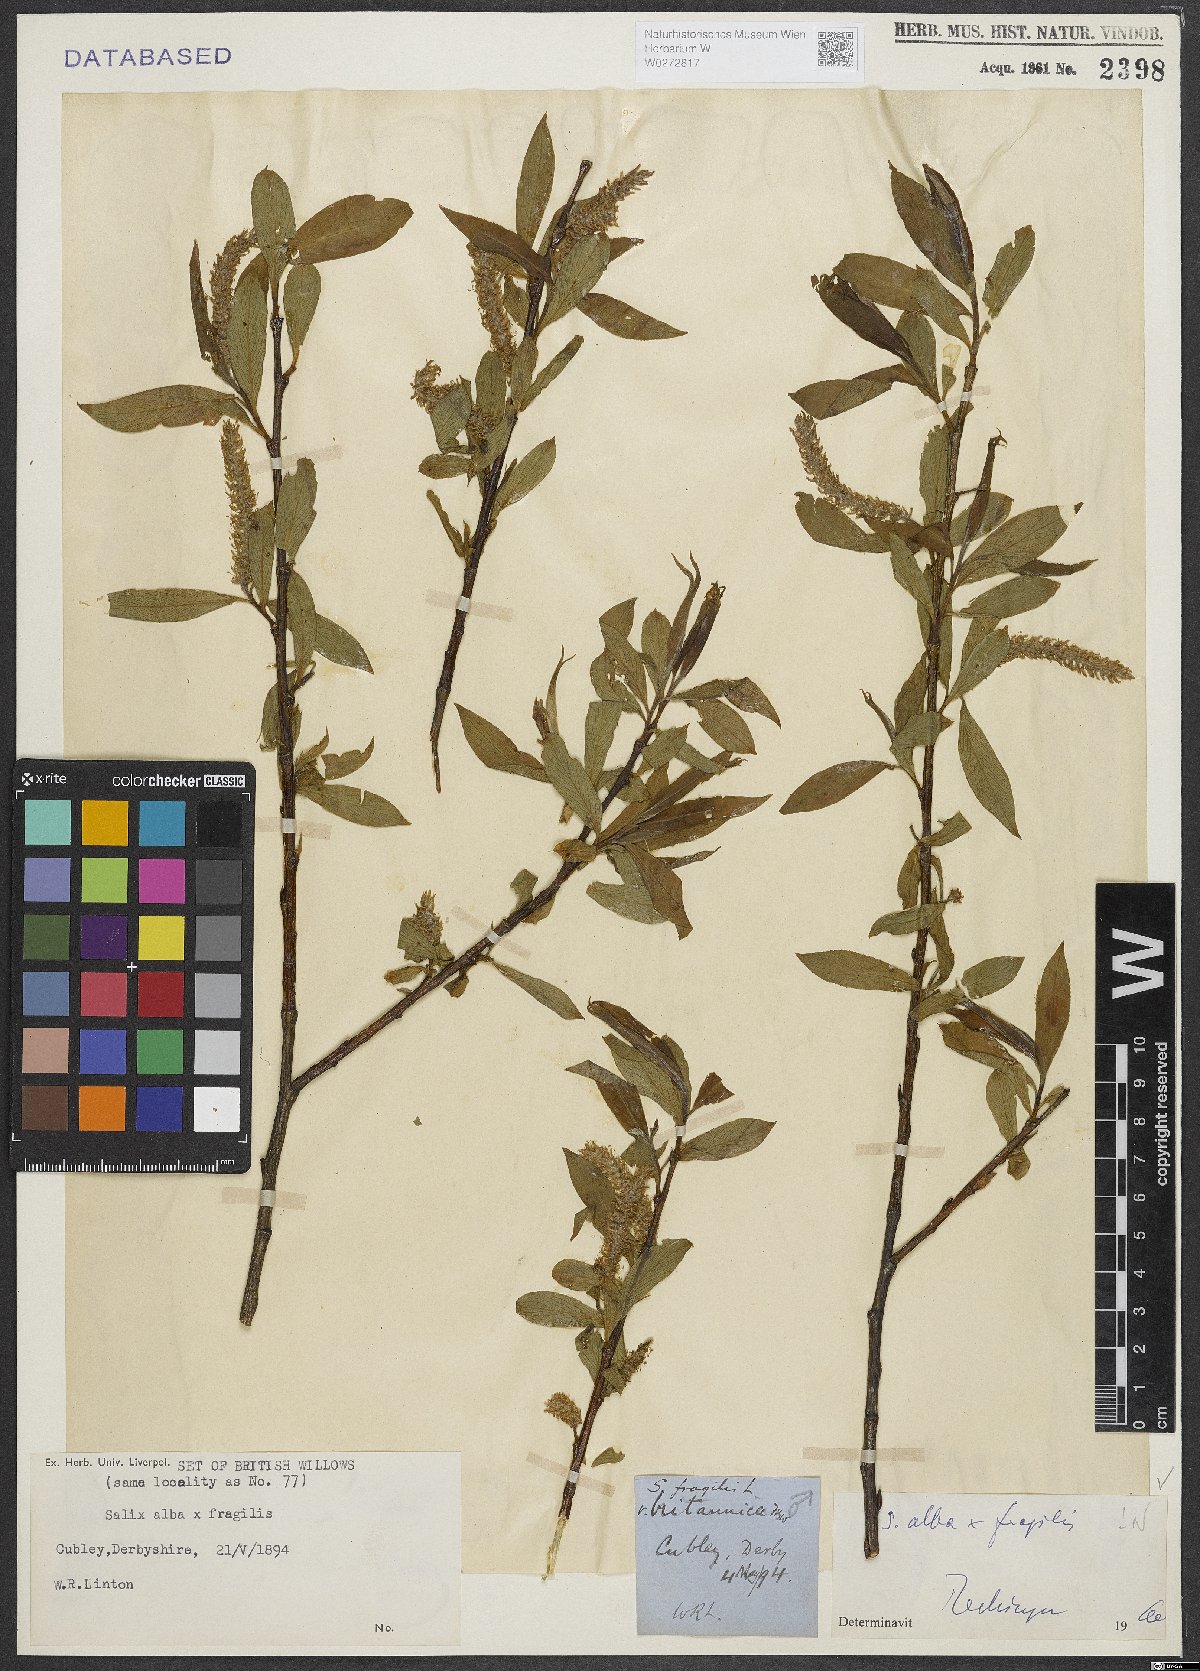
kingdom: Plantae
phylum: Tracheophyta
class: Magnoliopsida
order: Malpighiales
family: Salicaceae
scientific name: Salicaceae
